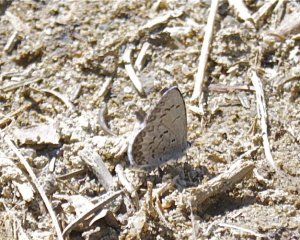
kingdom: Animalia
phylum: Arthropoda
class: Insecta
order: Lepidoptera
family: Lycaenidae
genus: Celastrina
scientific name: Celastrina lucia
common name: Northern Spring Azure
